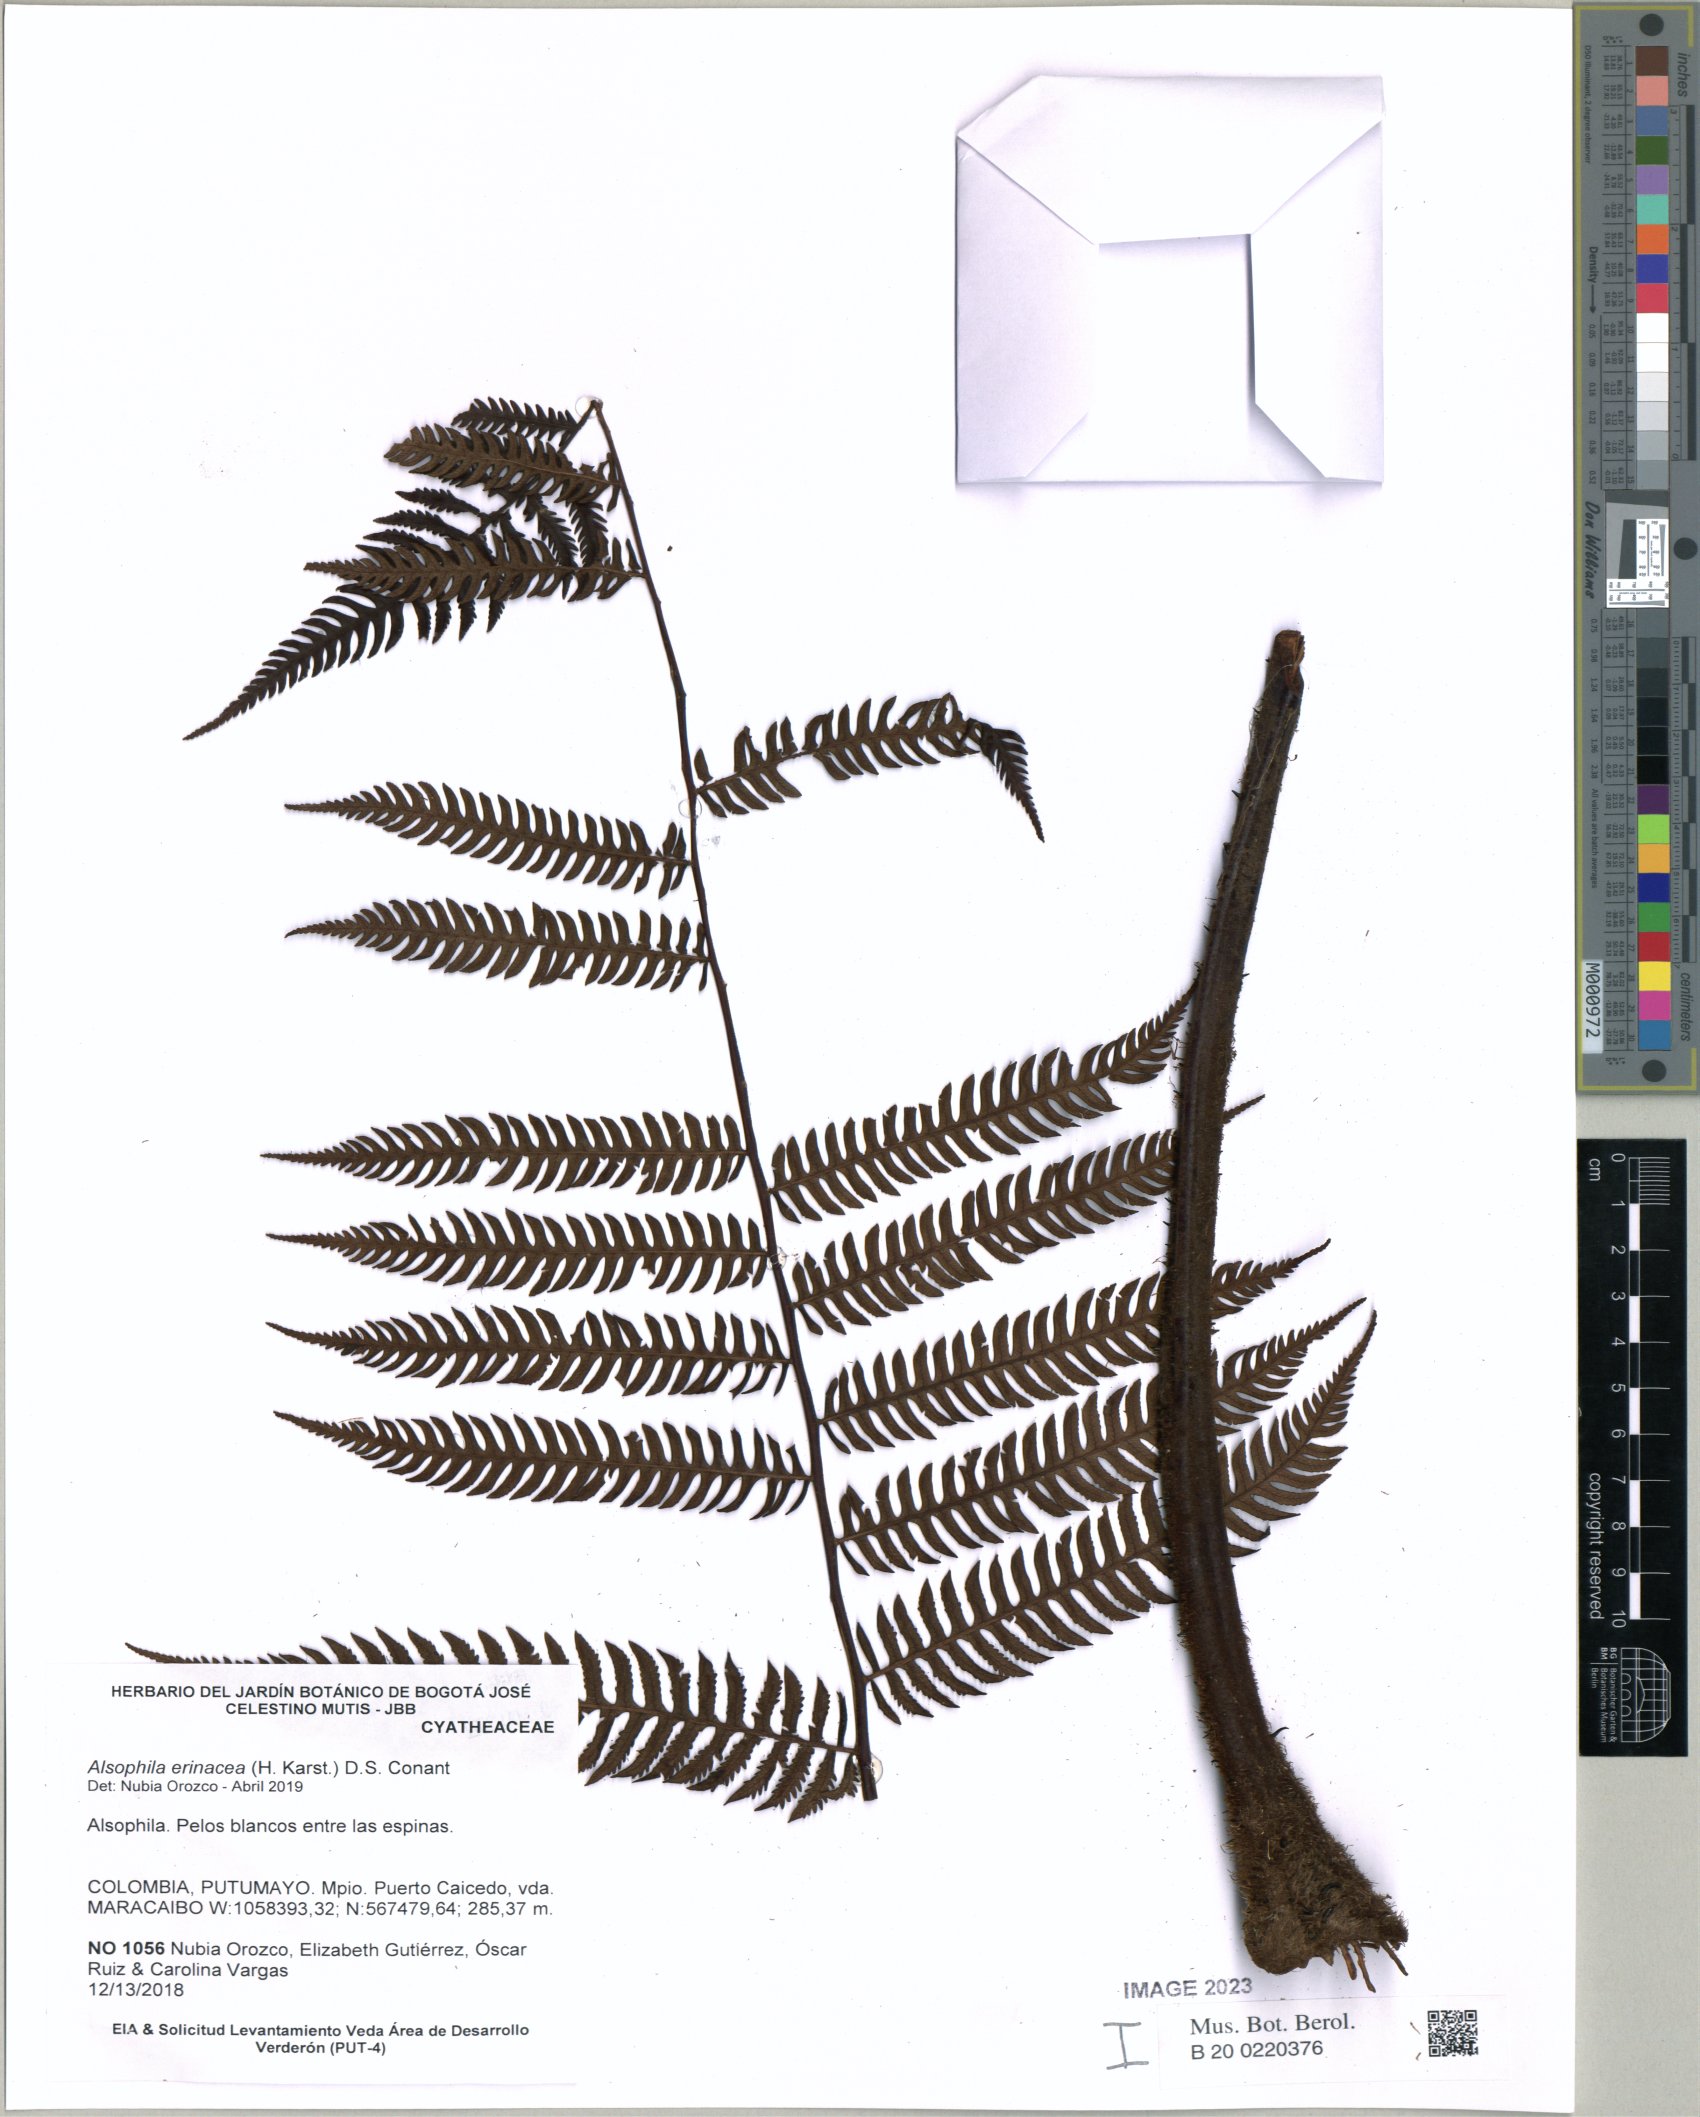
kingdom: Plantae
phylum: Tracheophyta
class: Polypodiopsida
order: Cyatheales
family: Cyatheaceae
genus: Alsophila
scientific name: Alsophila erinacea
